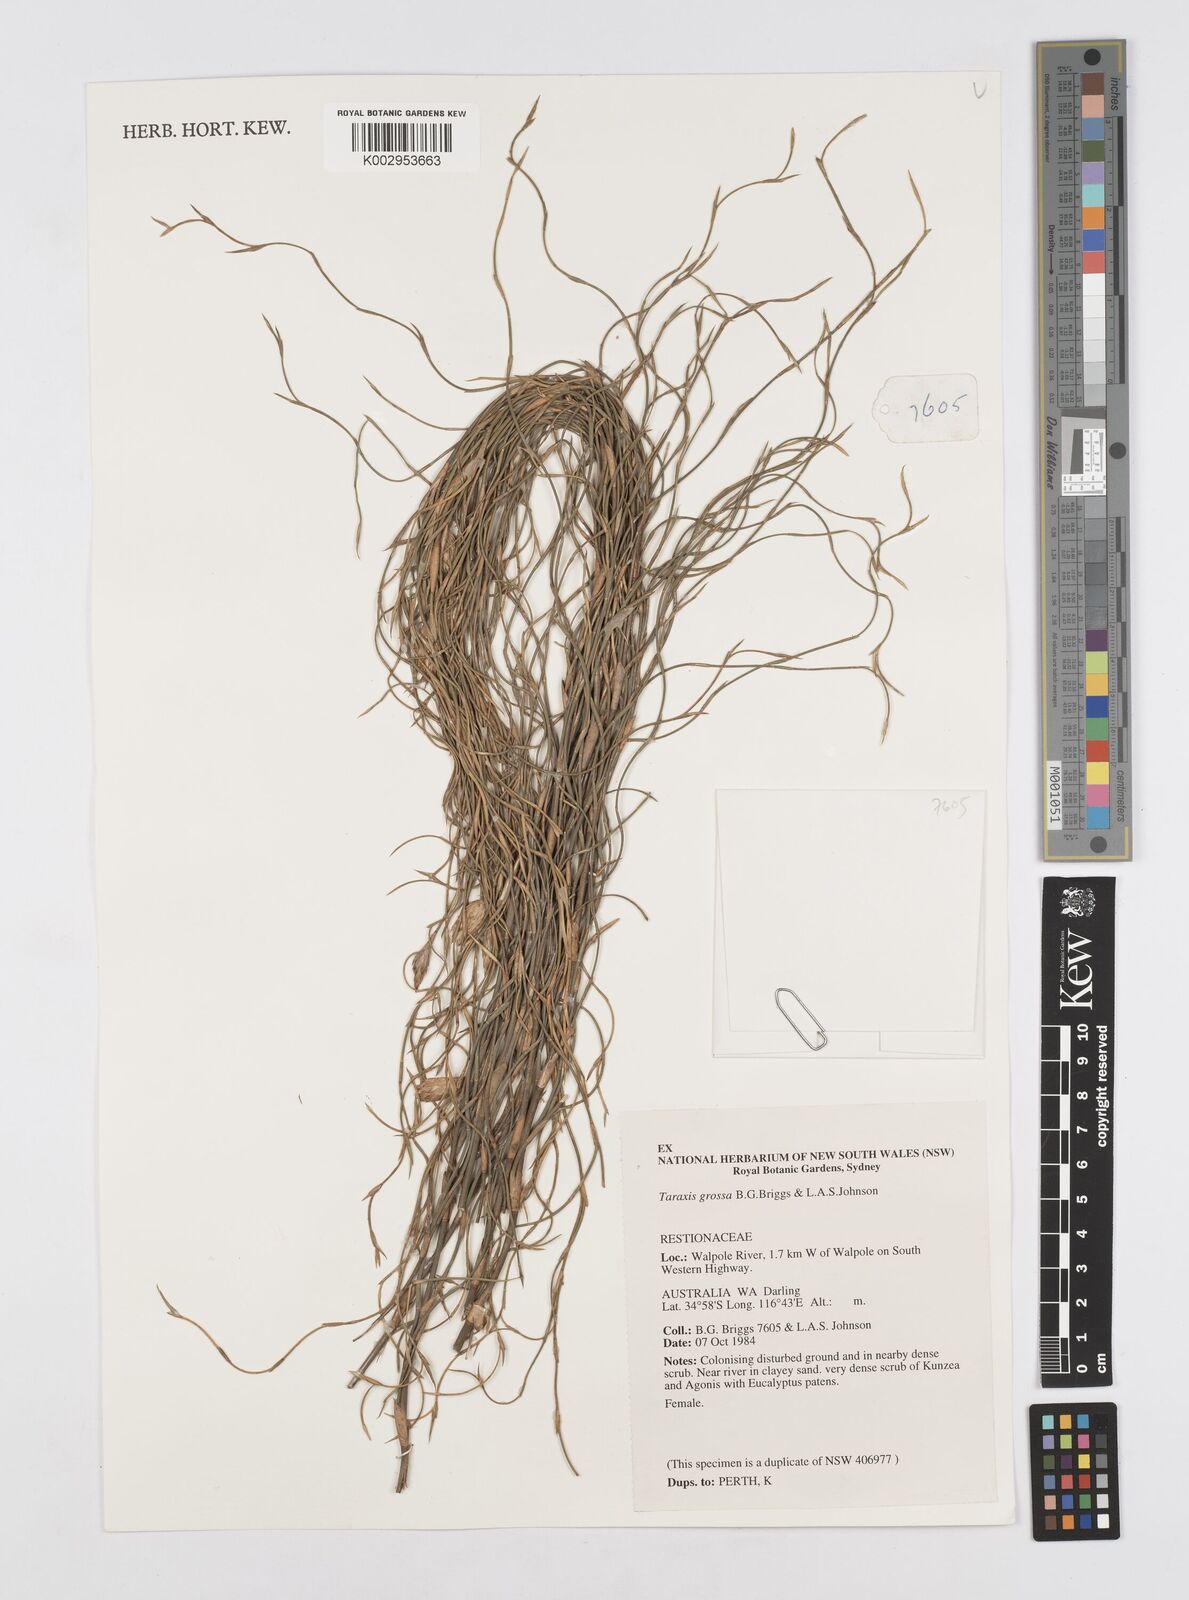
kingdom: Plantae
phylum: Tracheophyta
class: Liliopsida
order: Poales
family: Restionaceae
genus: Taraxis
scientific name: Taraxis grossa
